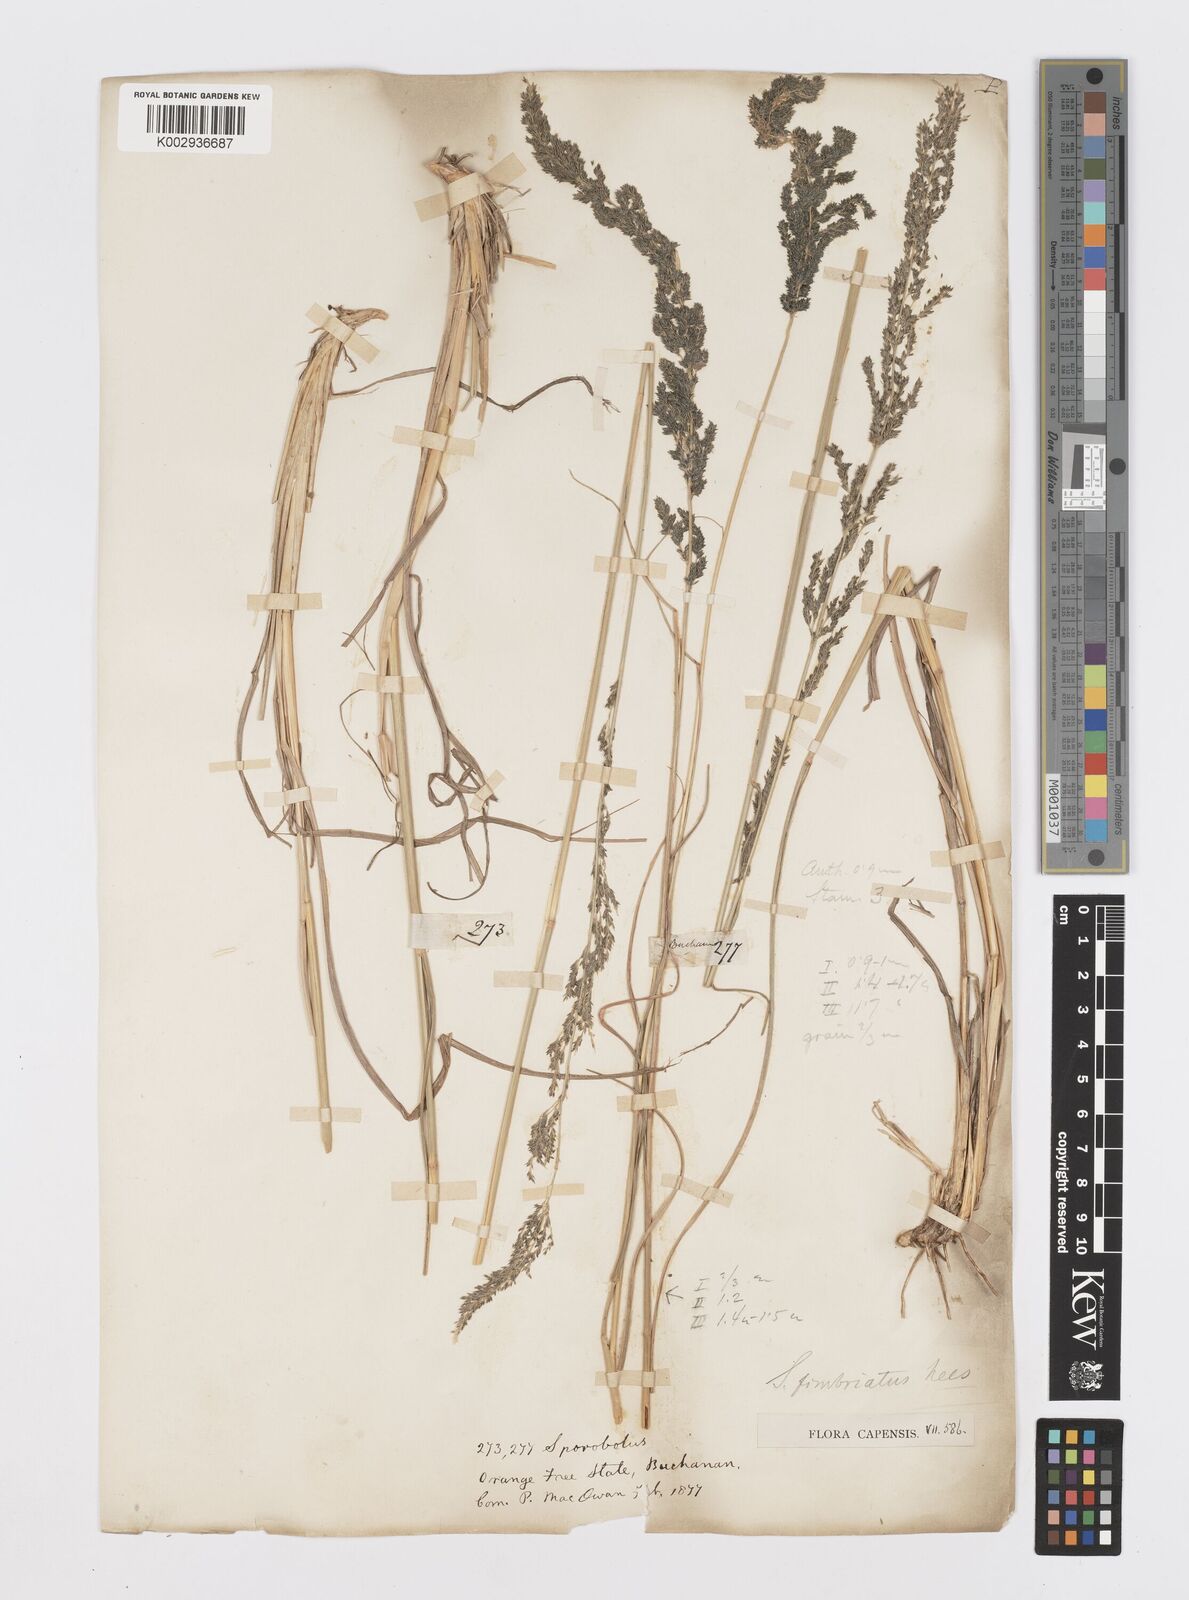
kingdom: Plantae
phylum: Tracheophyta
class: Liliopsida
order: Poales
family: Poaceae
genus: Sporobolus
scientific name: Sporobolus fimbriatus
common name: Fringed dropseed
